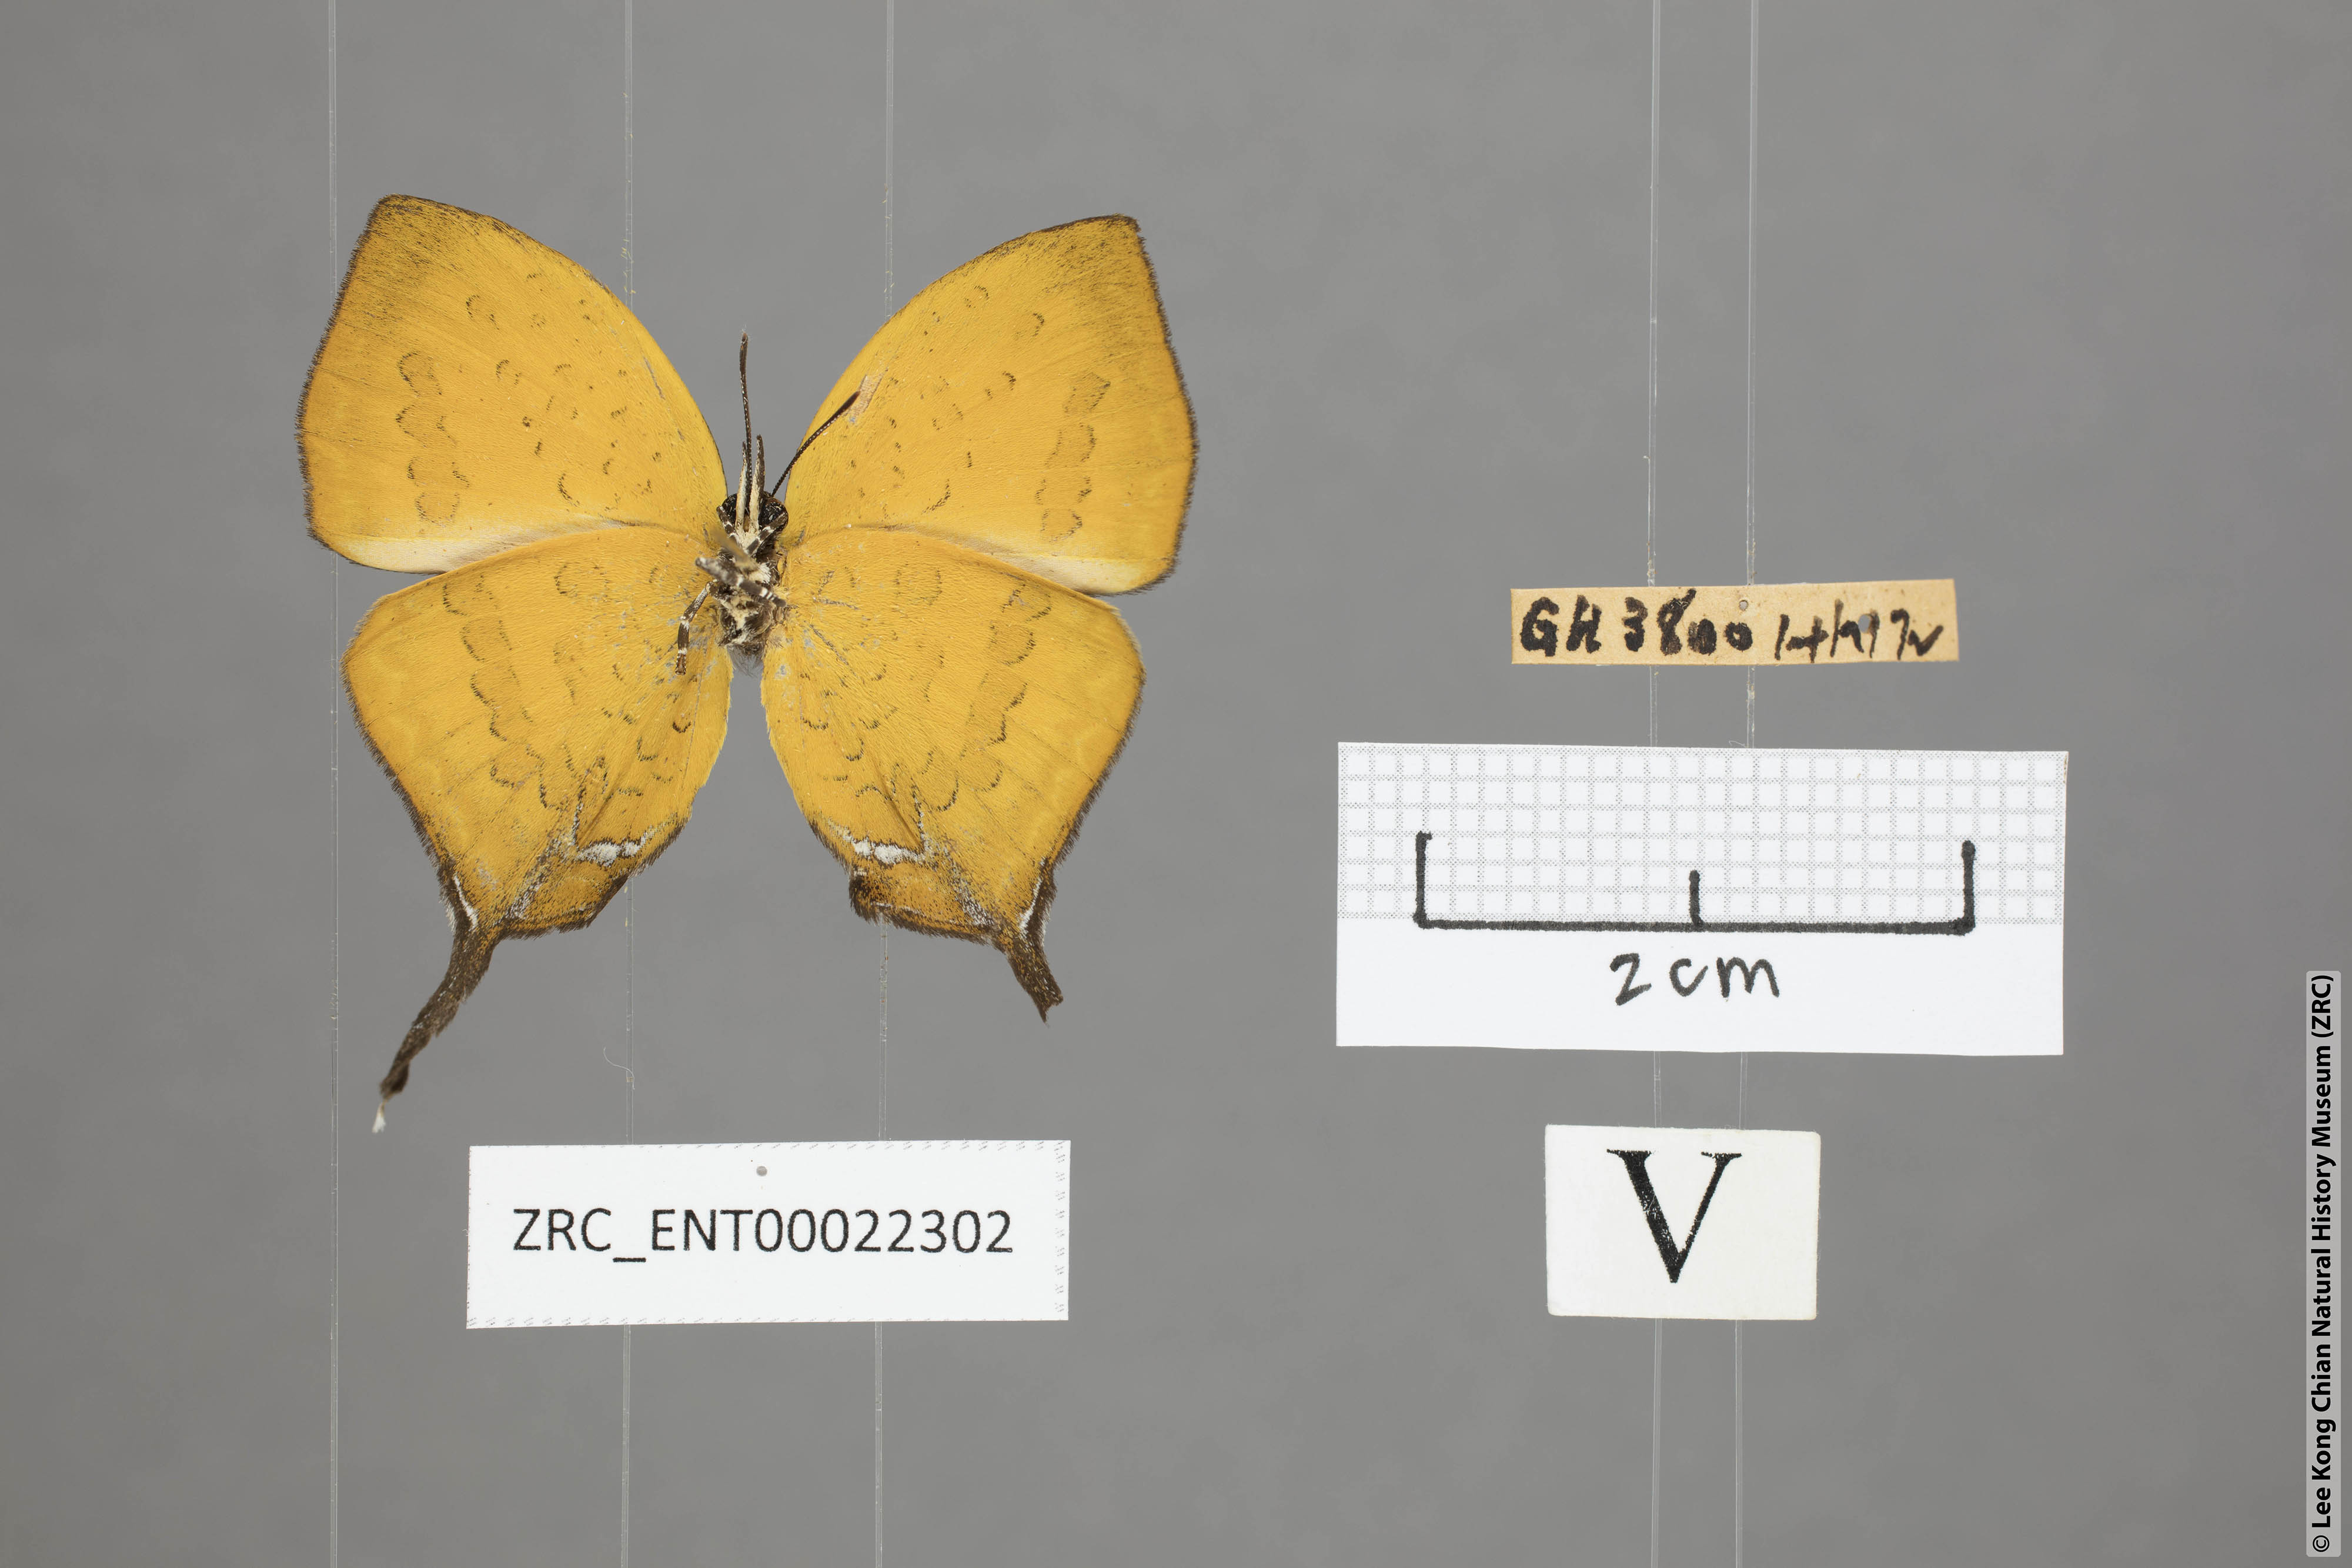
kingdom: Animalia
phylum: Arthropoda
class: Insecta
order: Lepidoptera
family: Lycaenidae
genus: Yasoda
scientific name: Yasoda pita
